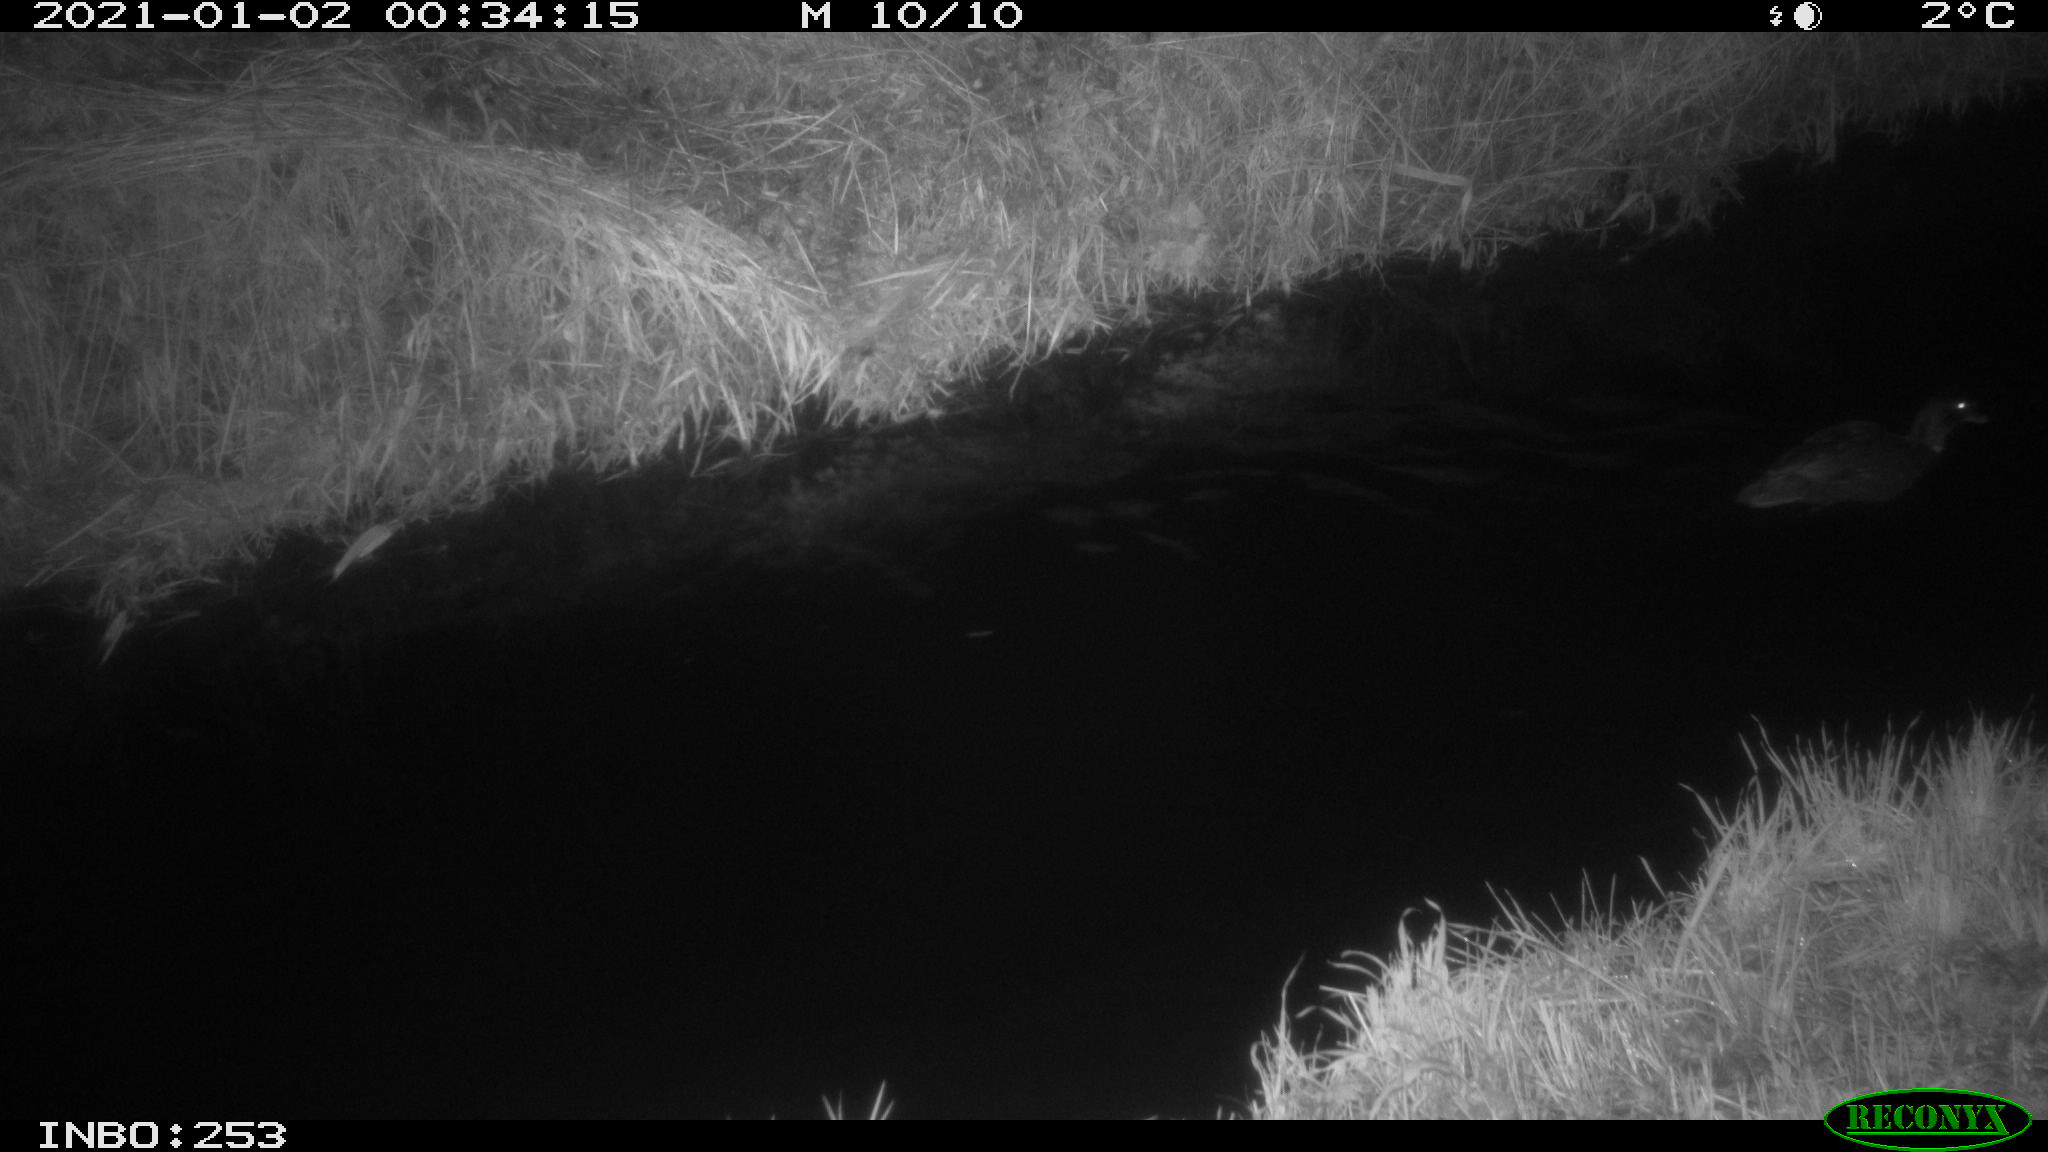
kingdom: Animalia
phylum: Chordata
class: Aves
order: Anseriformes
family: Anatidae
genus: Anas
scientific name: Anas platyrhynchos
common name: Mallard
